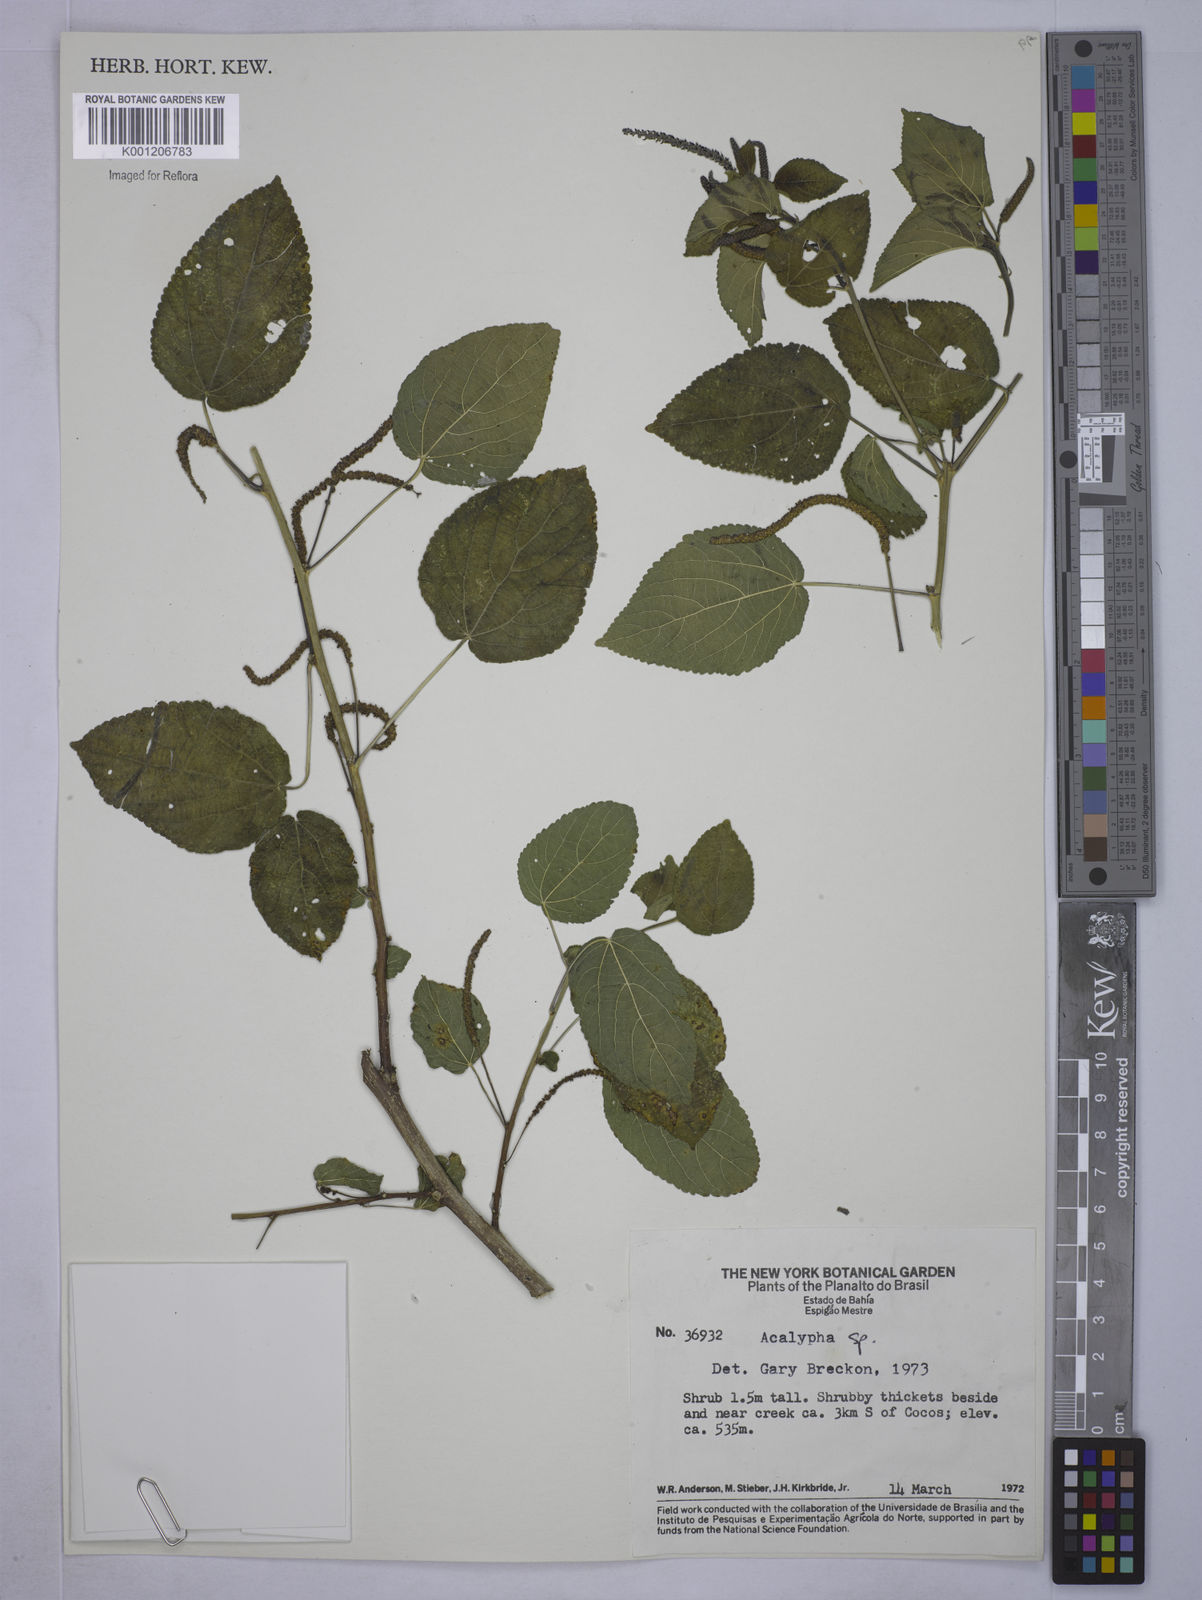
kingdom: Plantae
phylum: Tracheophyta
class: Magnoliopsida
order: Malpighiales
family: Euphorbiaceae
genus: Acalypha
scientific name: Acalypha
